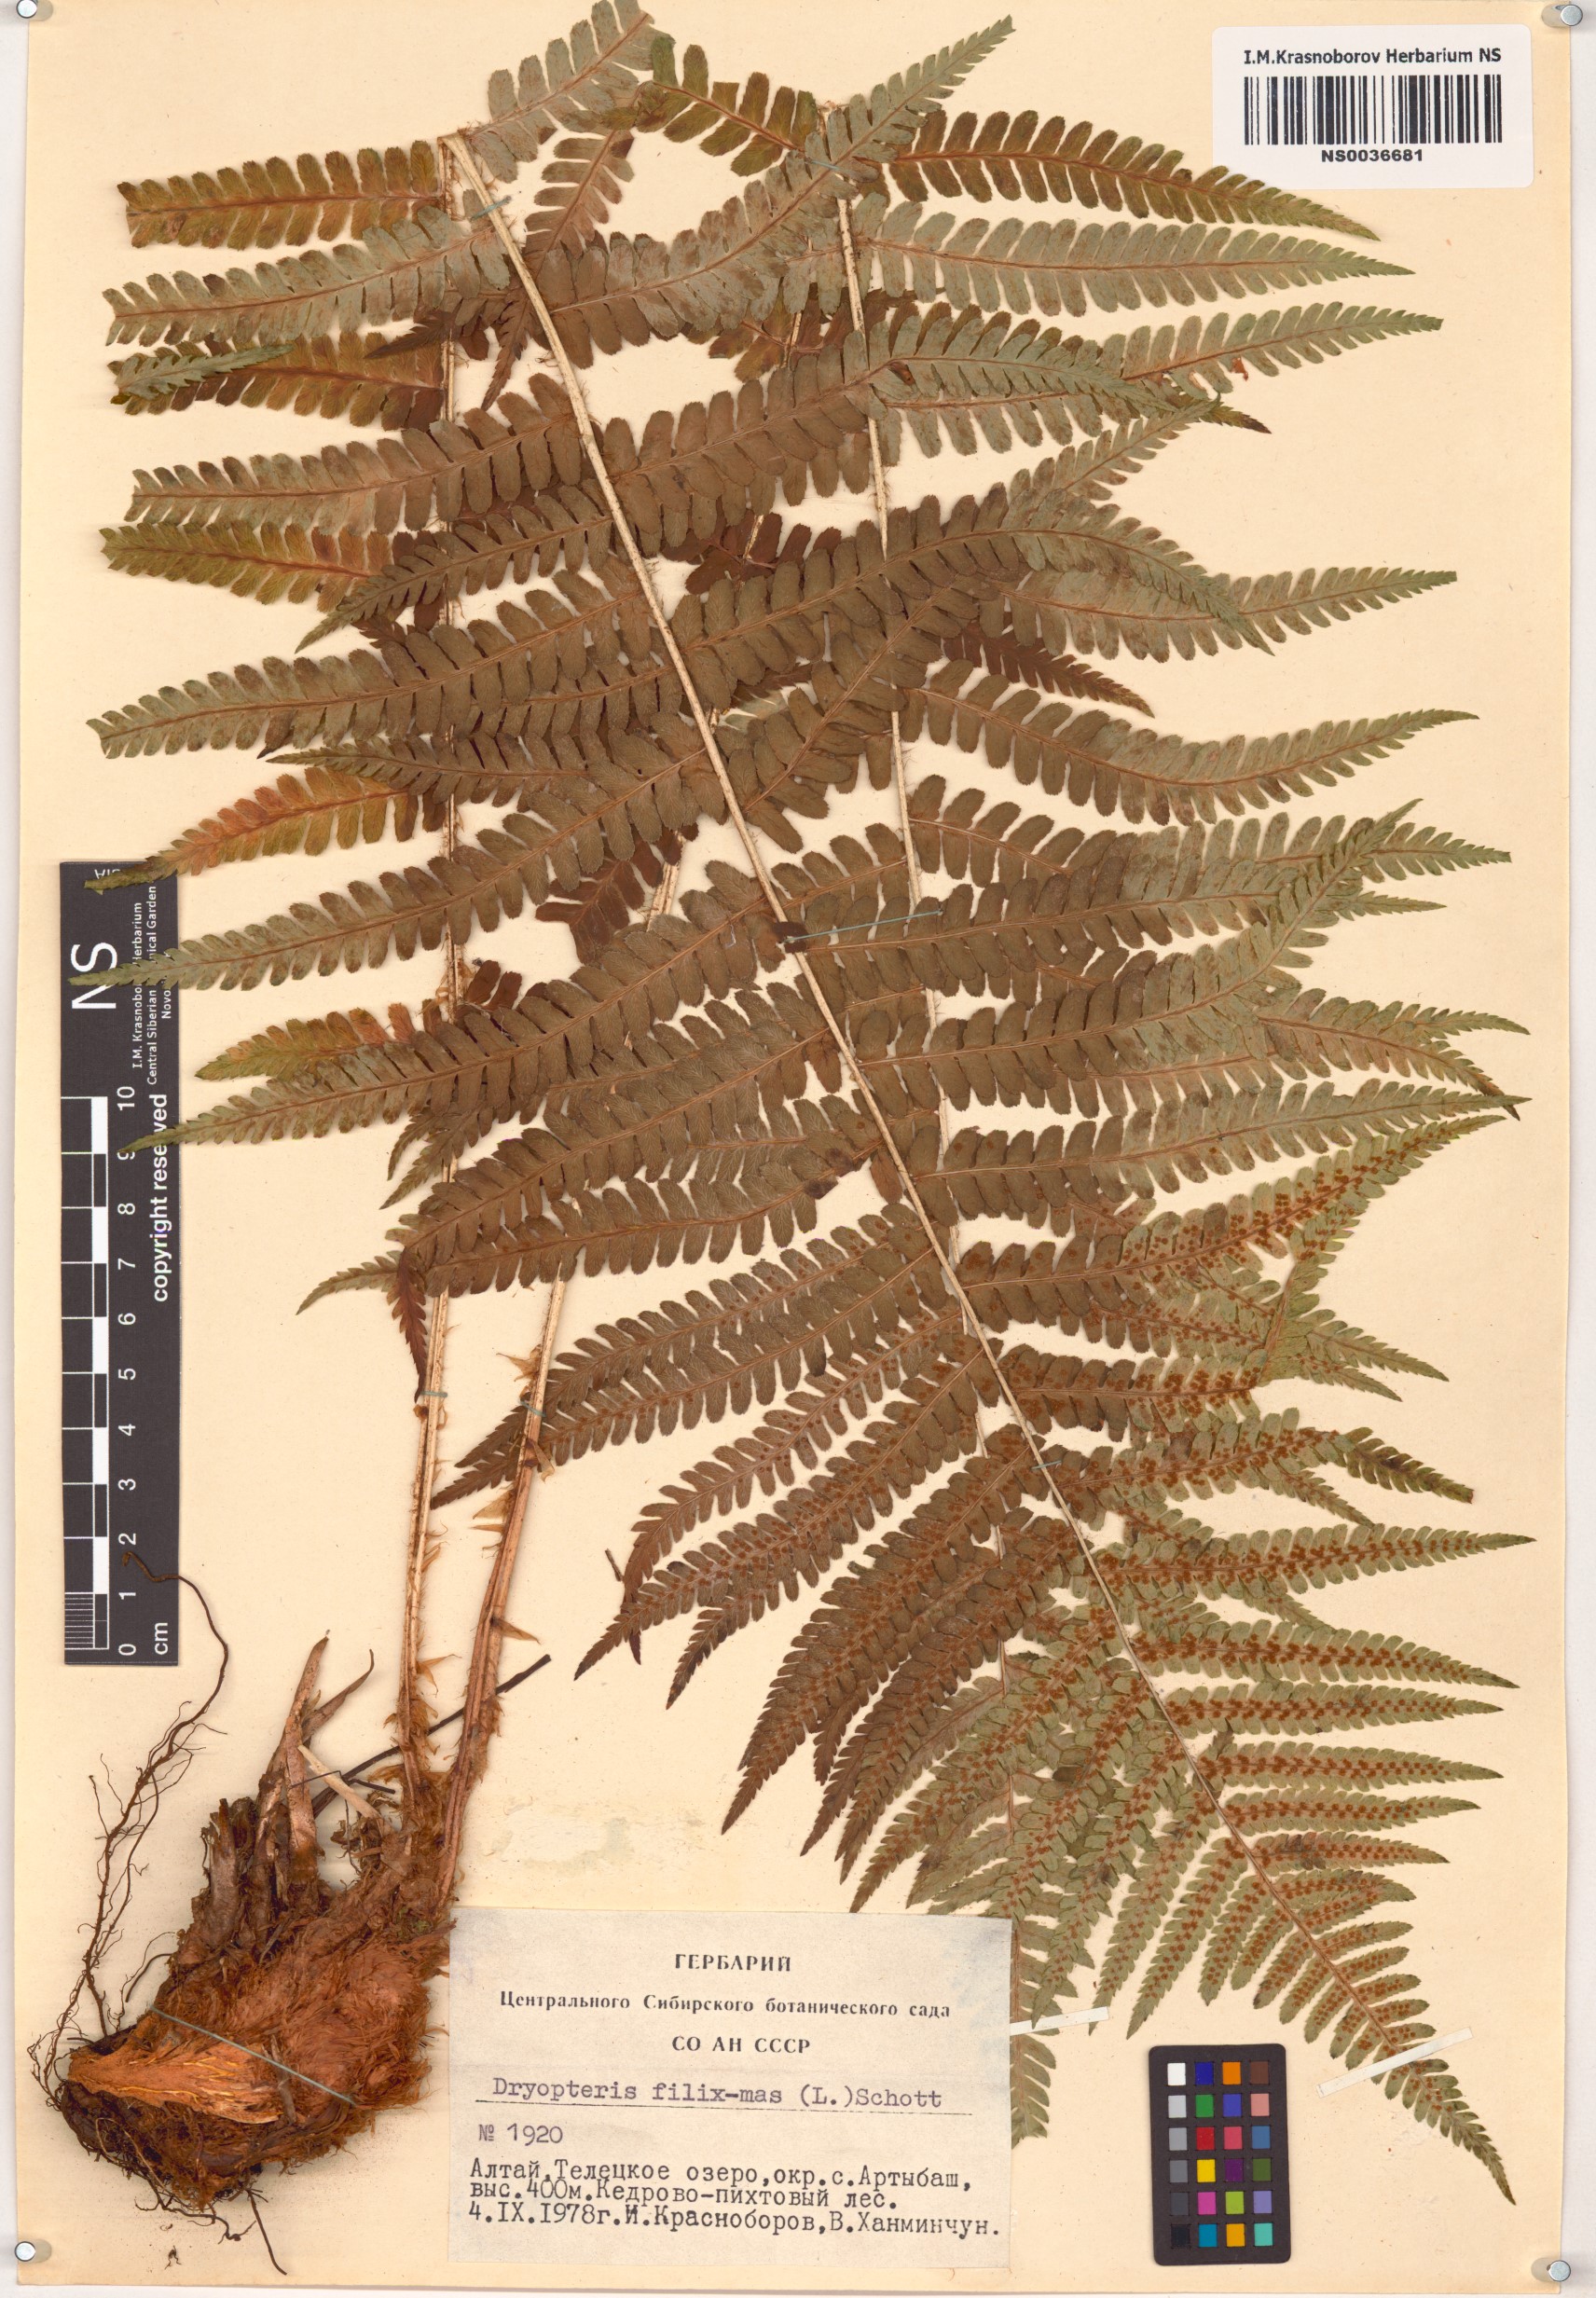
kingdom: Plantae
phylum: Tracheophyta
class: Polypodiopsida
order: Polypodiales
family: Dryopteridaceae
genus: Dryopteris
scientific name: Dryopteris filix-mas
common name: Male fern
